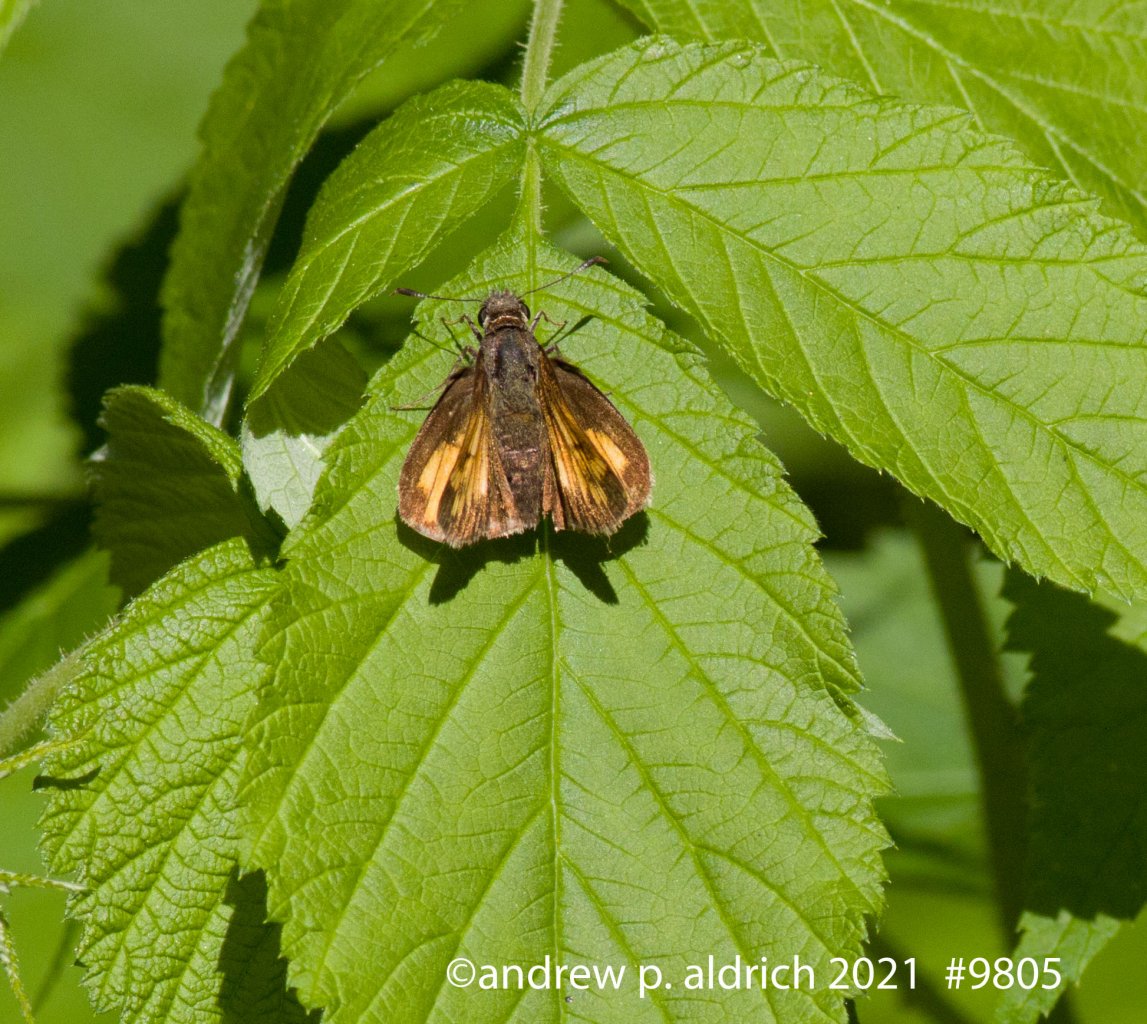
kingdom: Animalia
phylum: Arthropoda
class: Insecta
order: Lepidoptera
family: Hesperiidae
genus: Lon
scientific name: Lon hobomok
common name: Hobomok Skipper
